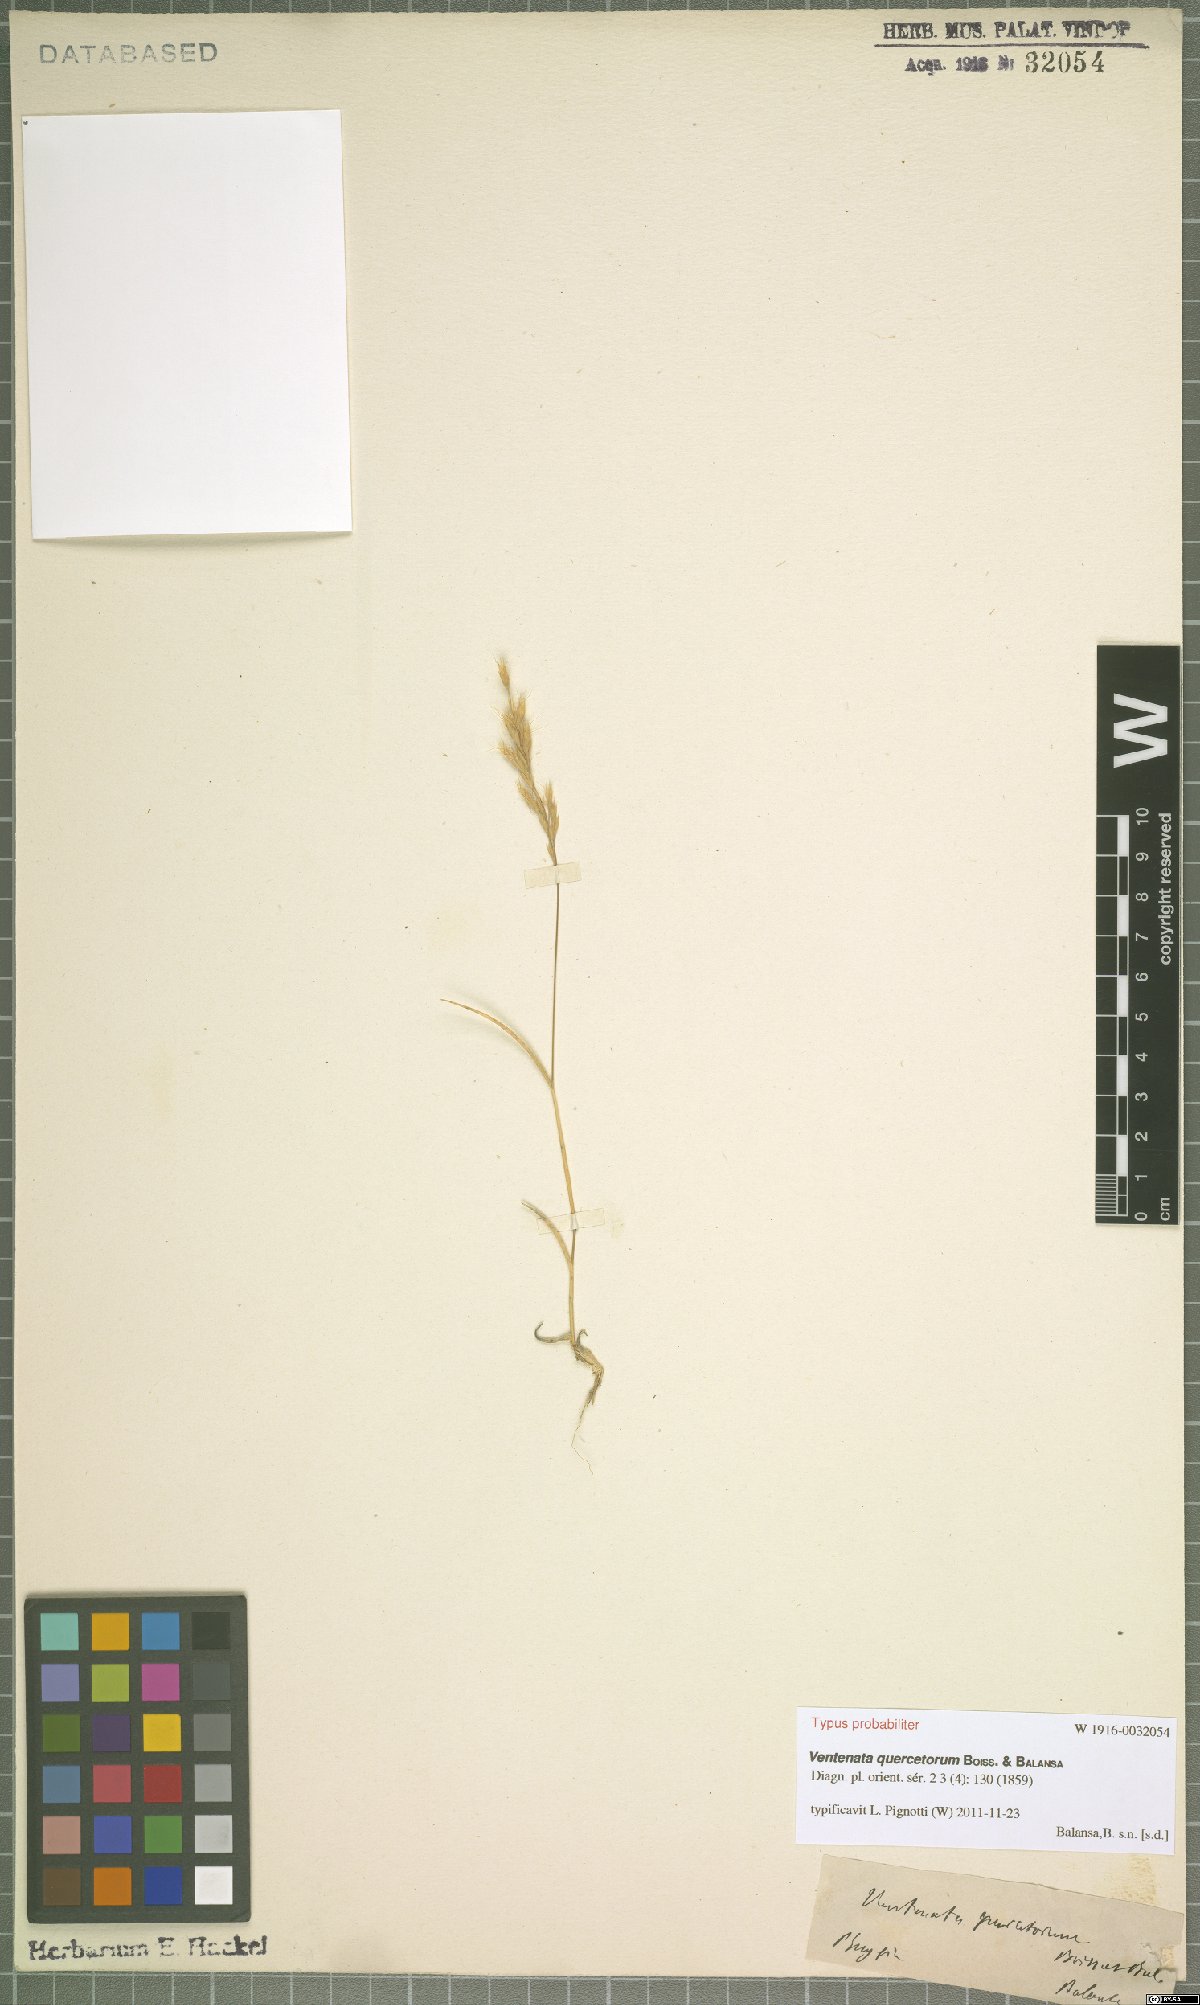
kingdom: Plantae
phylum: Tracheophyta
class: Liliopsida
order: Poales
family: Poaceae
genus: Ventenata
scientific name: Ventenata quercetorum
